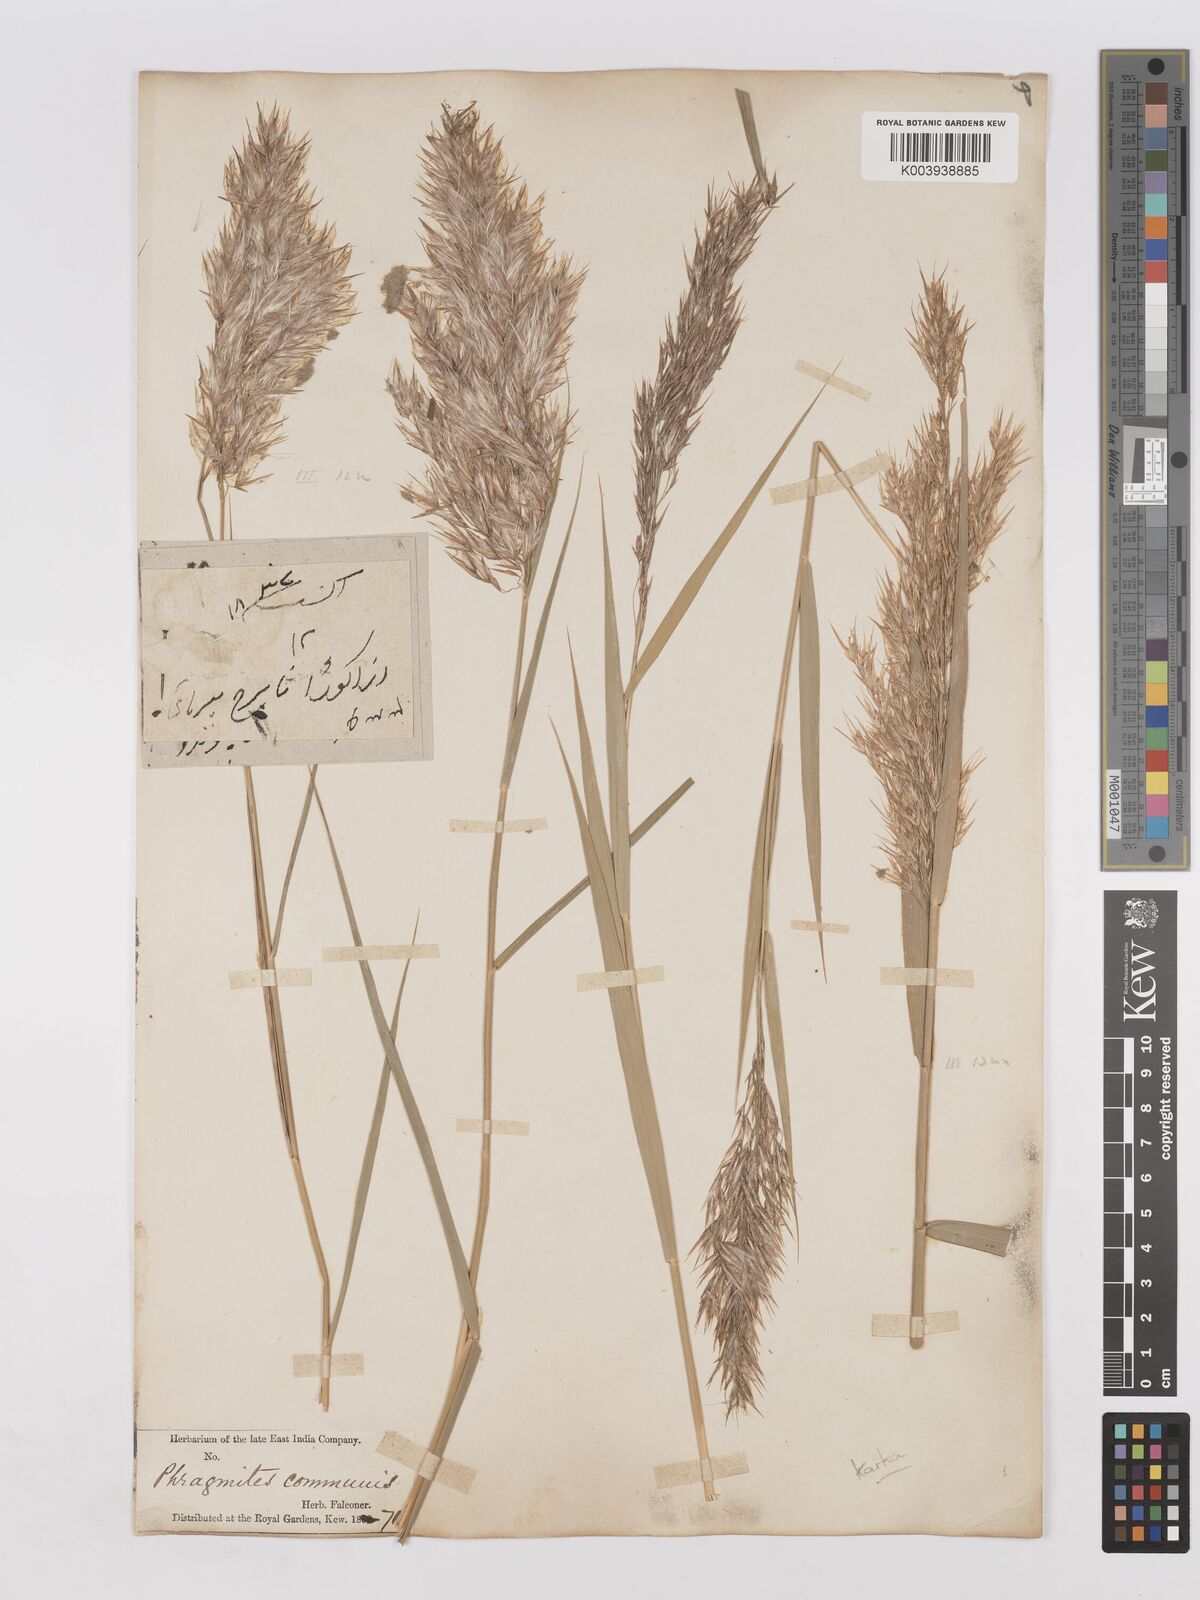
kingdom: Plantae
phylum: Tracheophyta
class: Liliopsida
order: Poales
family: Poaceae
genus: Phragmites
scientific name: Phragmites karka
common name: Tropical reed
